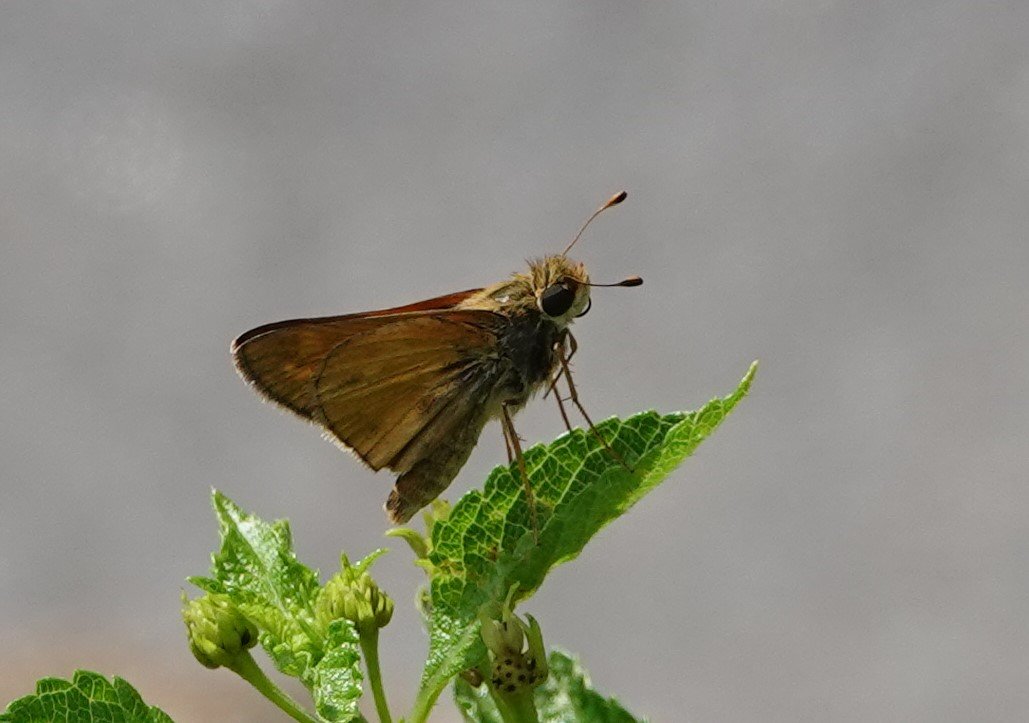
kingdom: Animalia
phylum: Arthropoda
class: Insecta
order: Lepidoptera
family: Hesperiidae
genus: Atalopedes
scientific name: Atalopedes campestris
